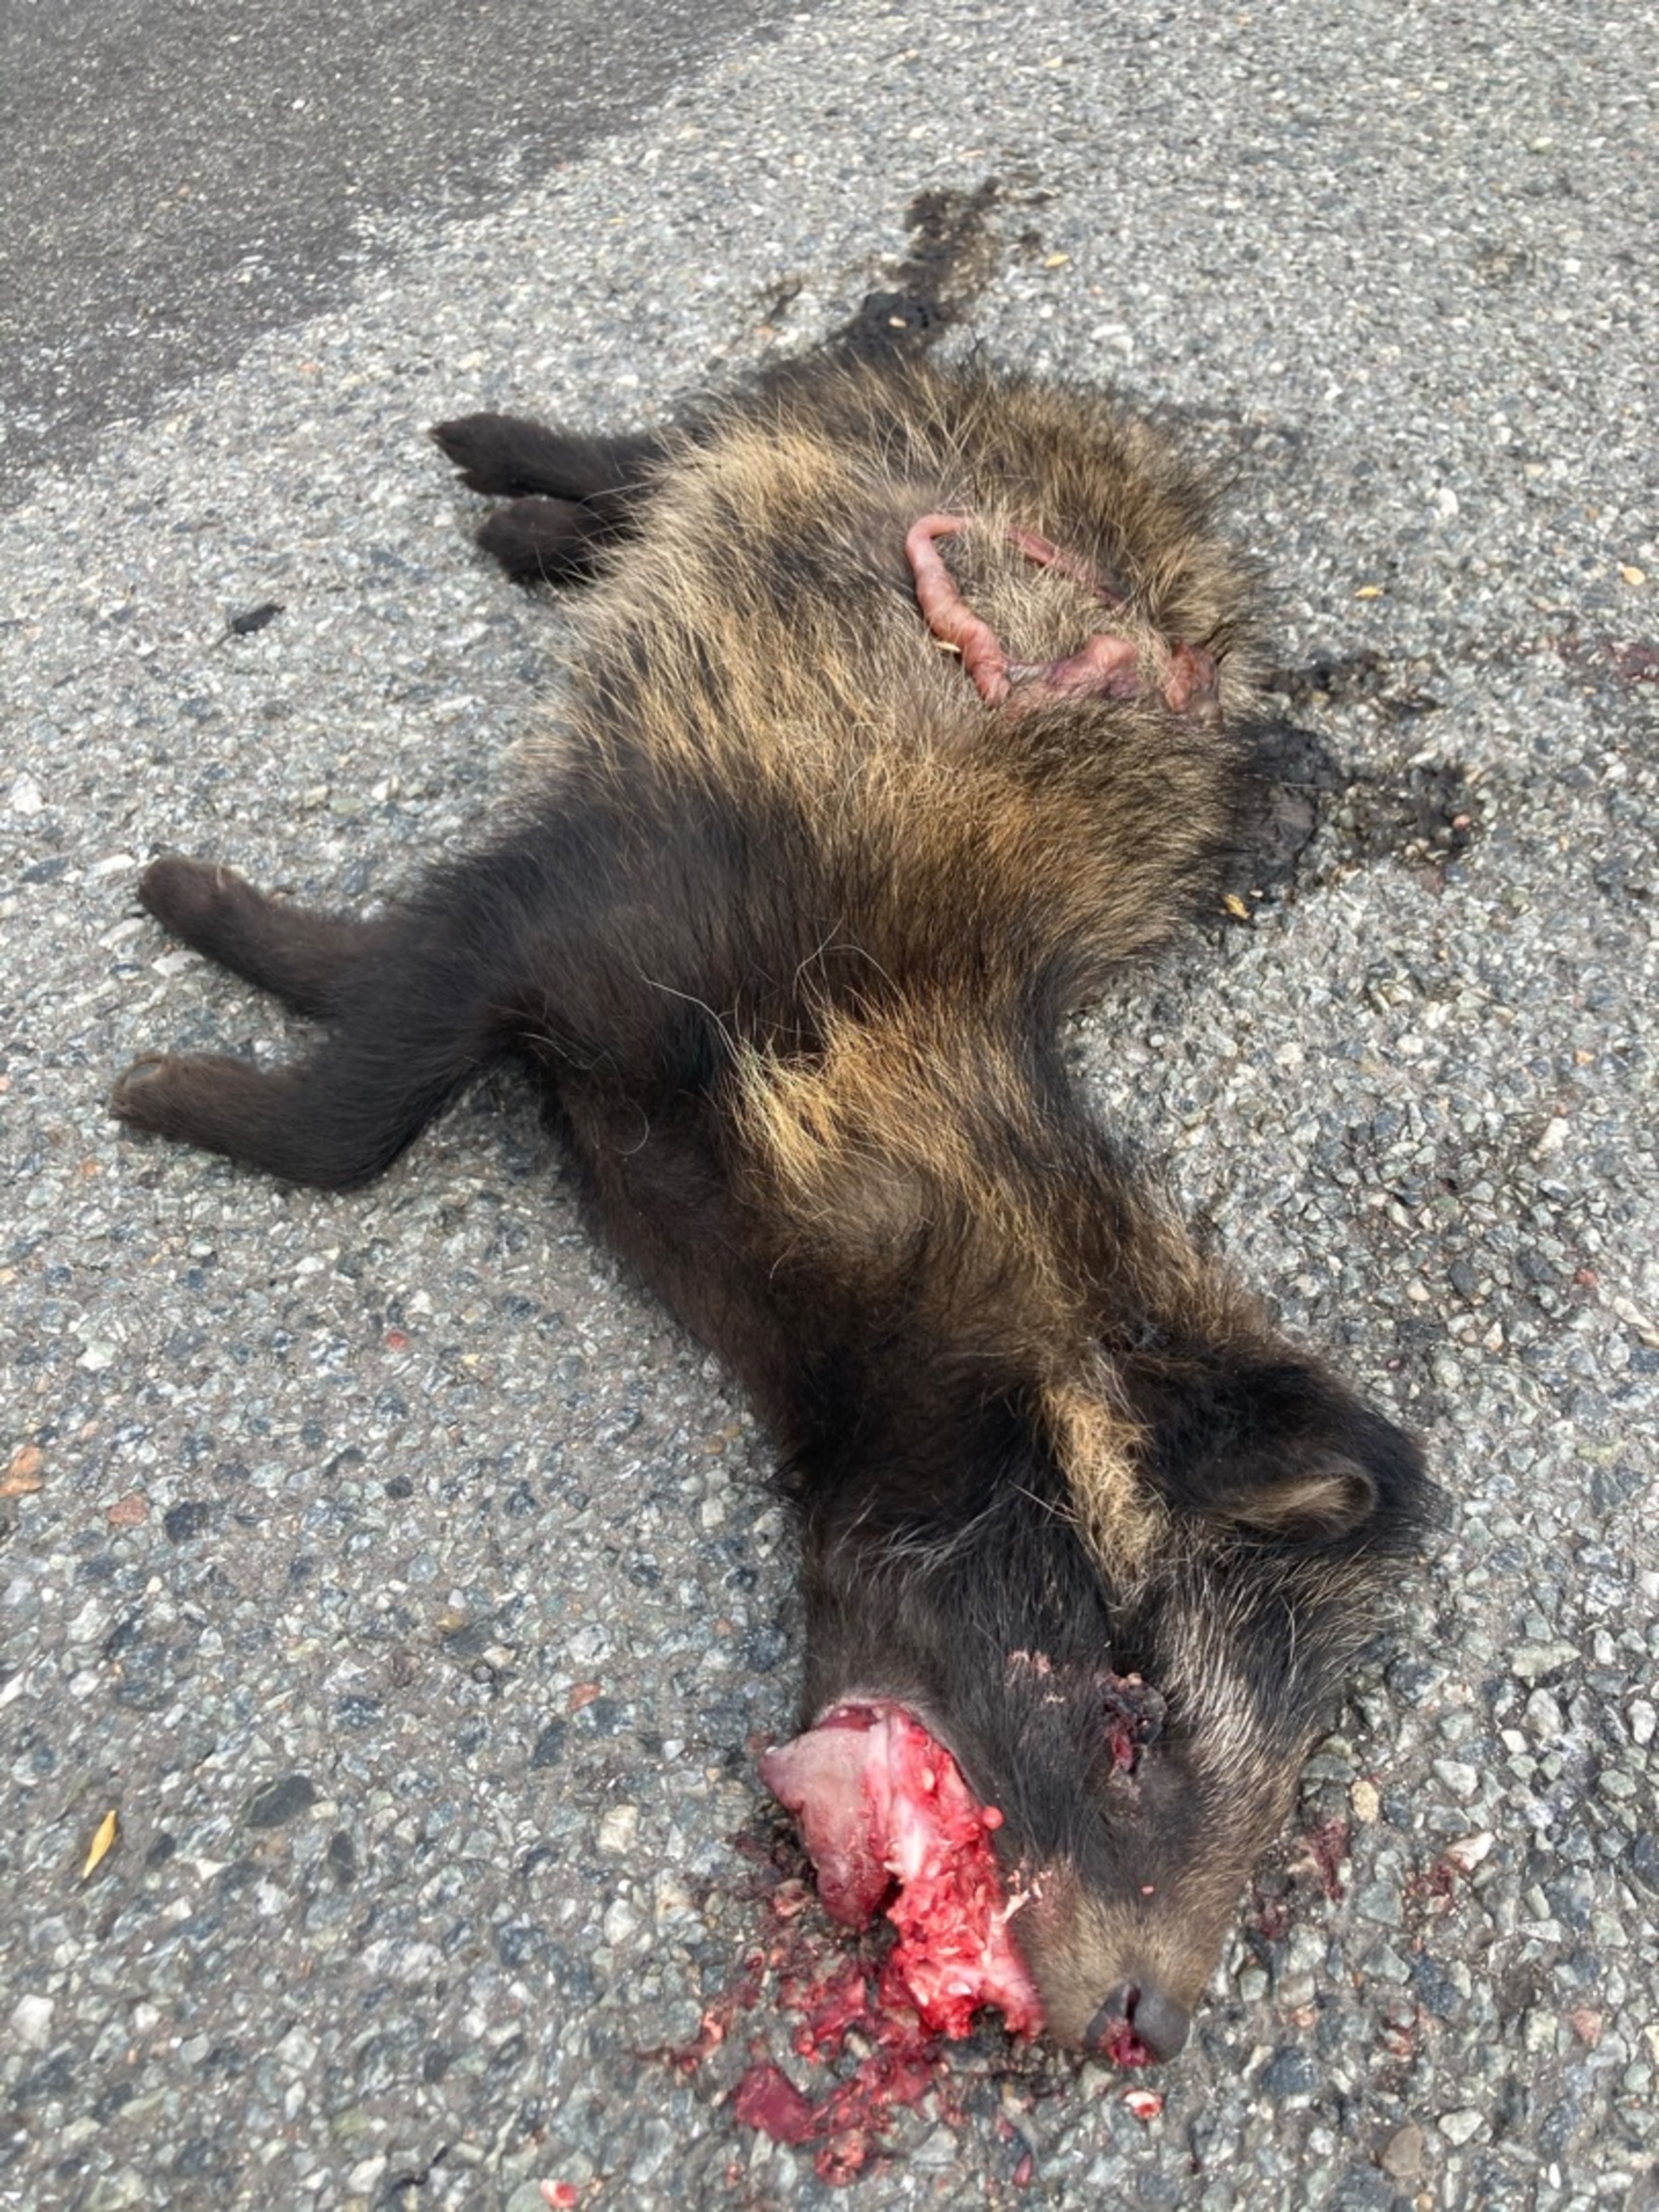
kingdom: Animalia
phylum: Chordata
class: Mammalia
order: Carnivora
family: Canidae
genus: Nyctereutes
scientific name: Nyctereutes procyonoides
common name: Mårhund
